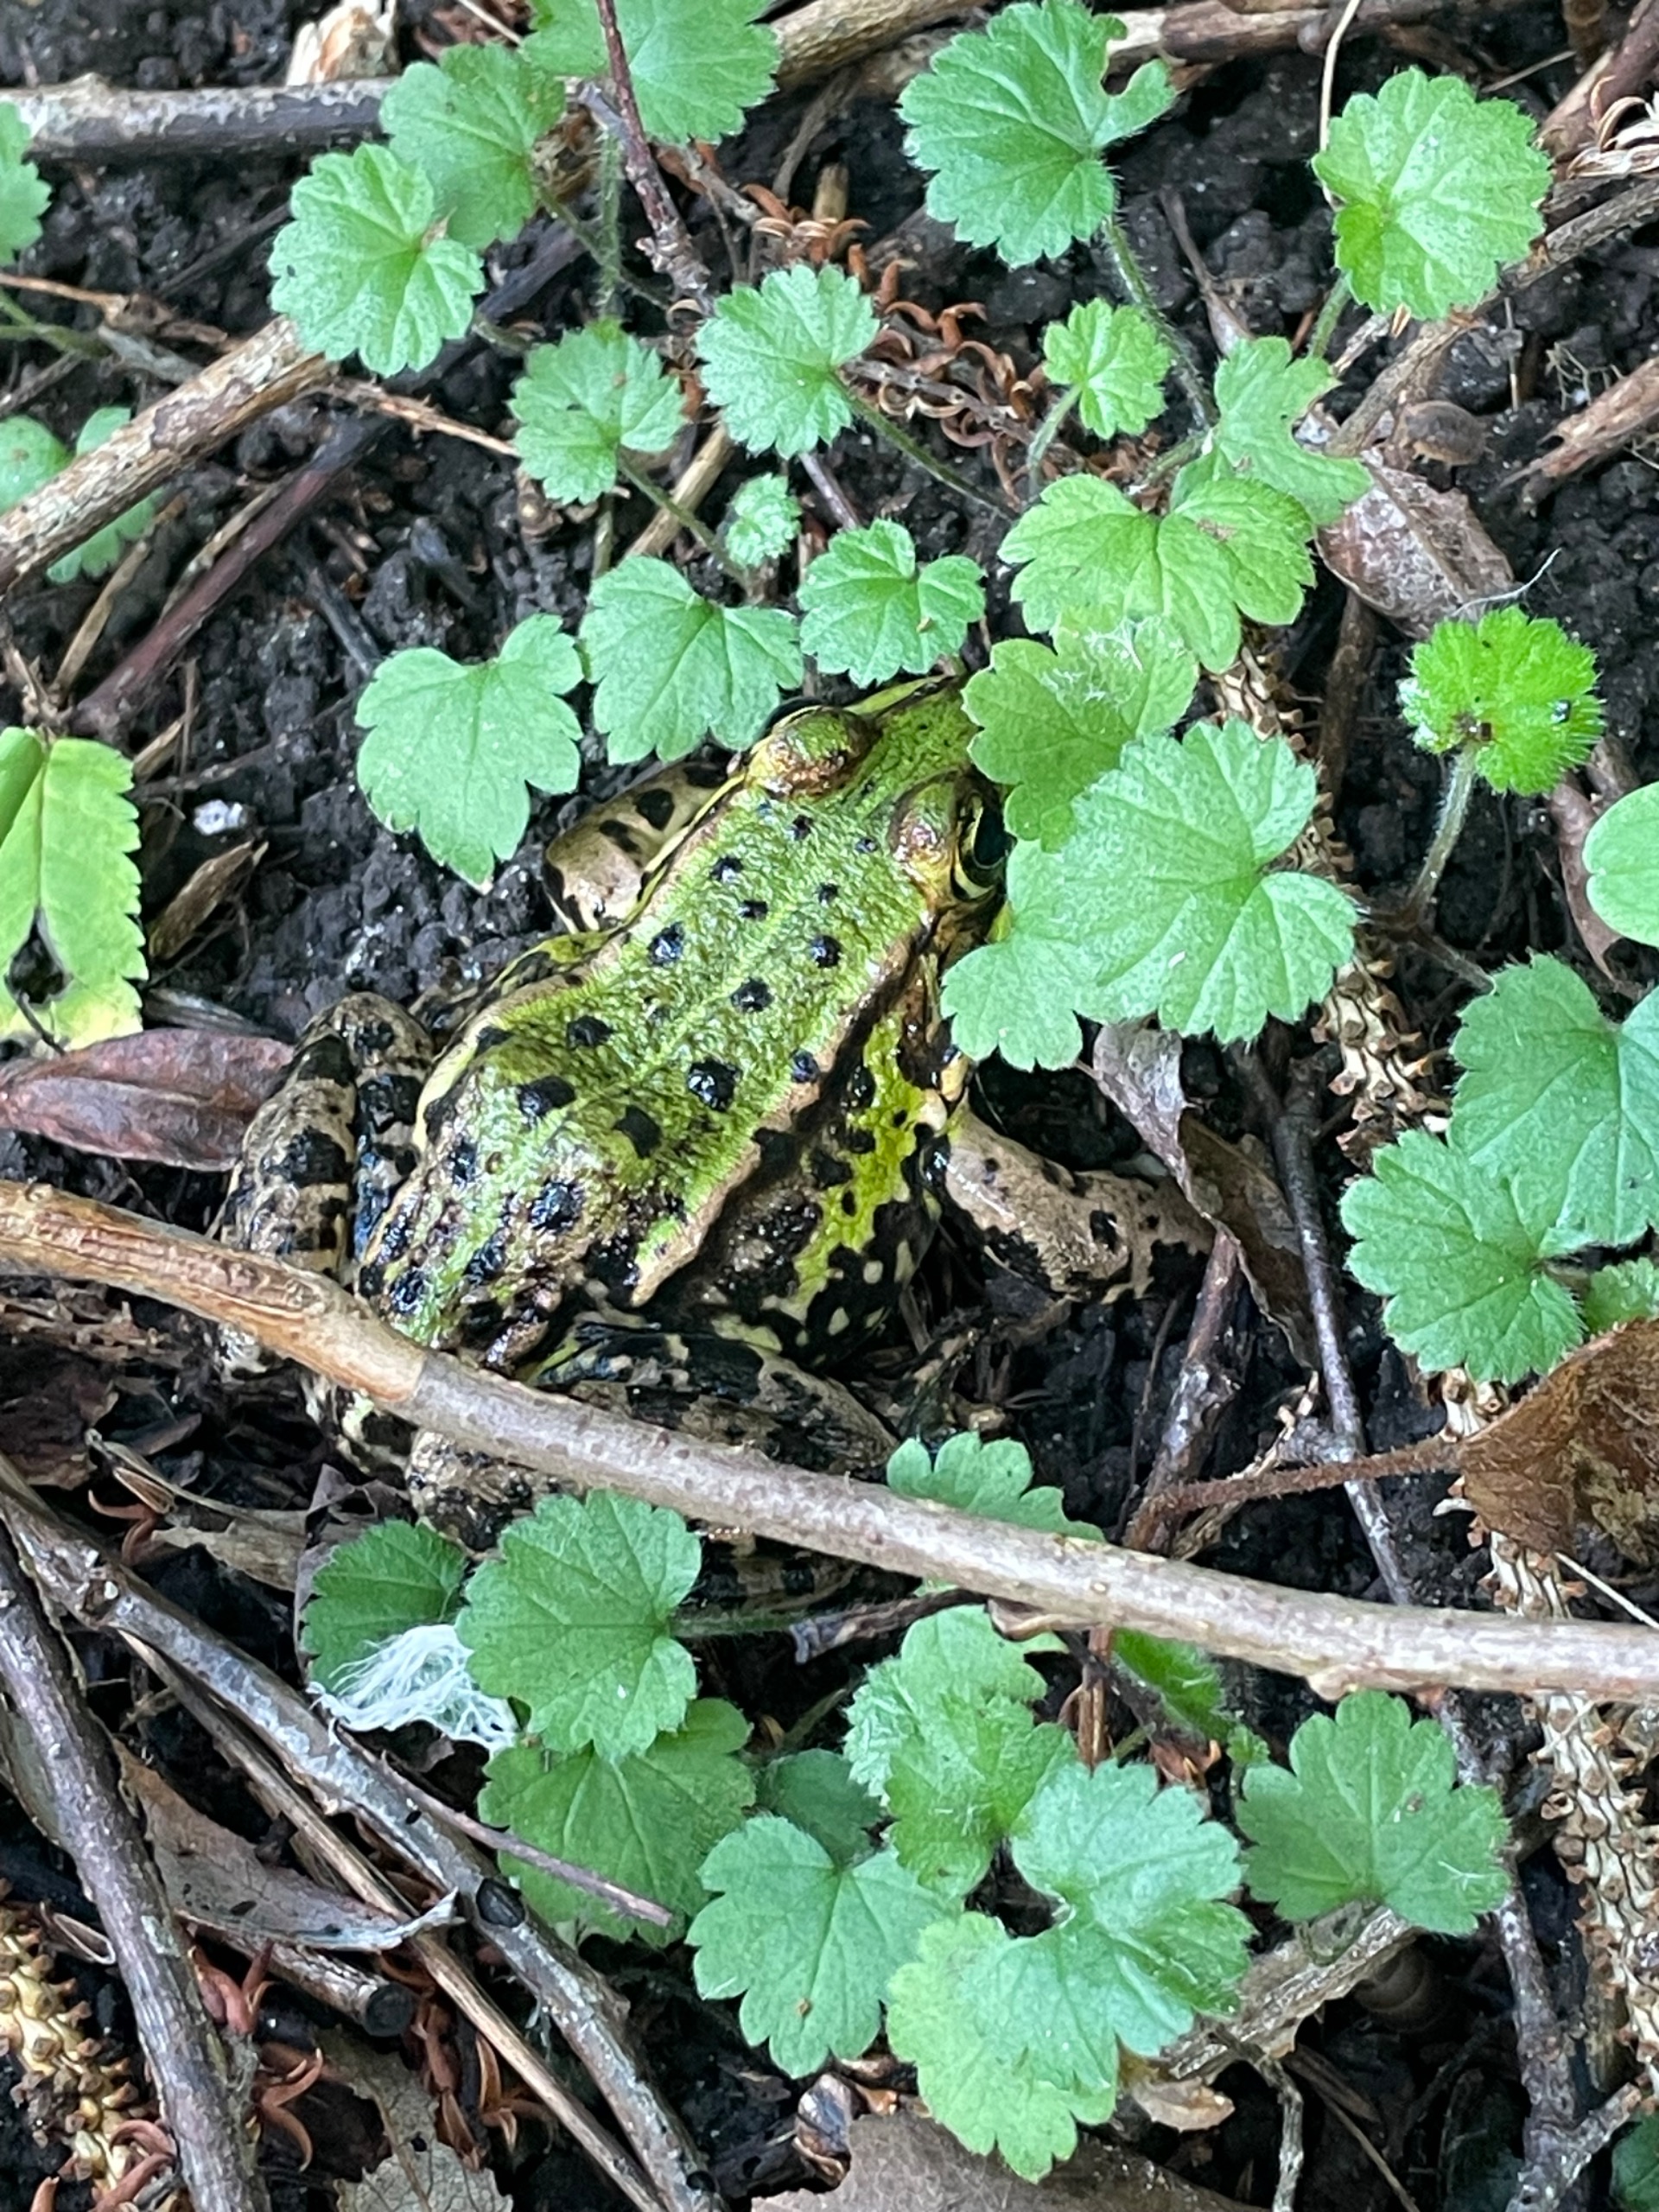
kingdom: Animalia
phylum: Chordata
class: Amphibia
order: Anura
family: Ranidae
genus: Pelophylax
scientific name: Pelophylax lessonae
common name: Grøn frø
